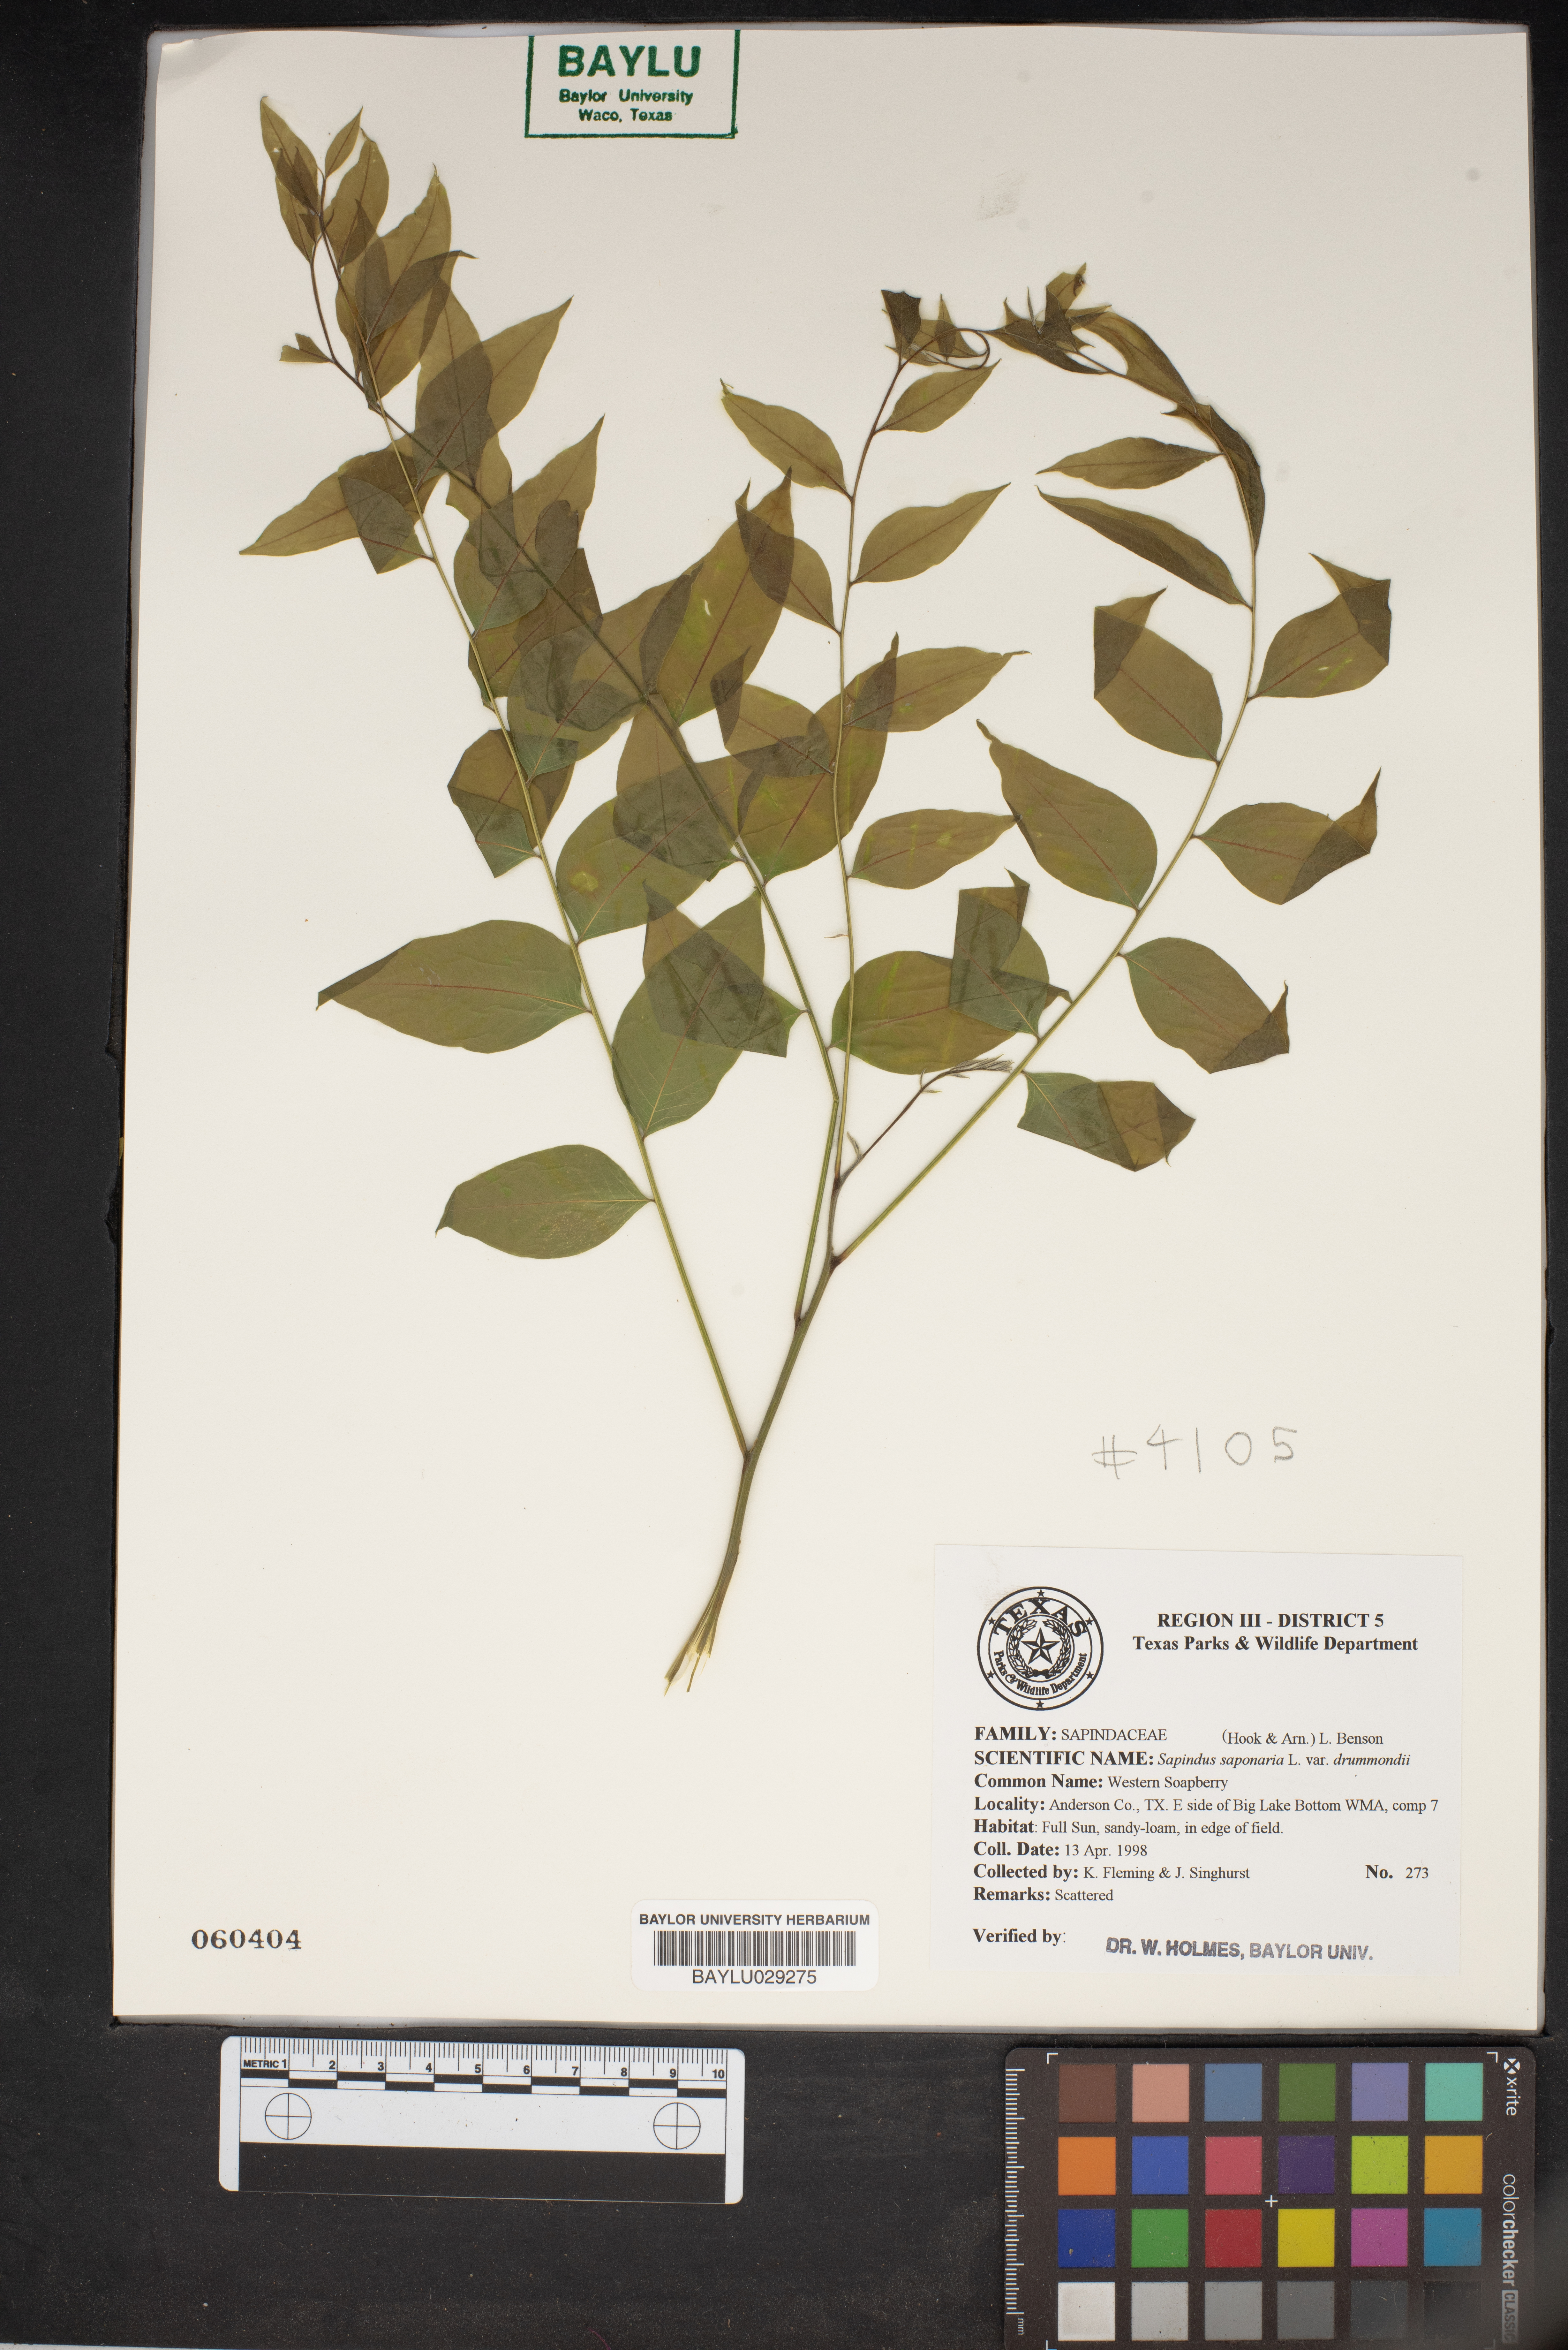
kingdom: Plantae
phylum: Tracheophyta
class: Magnoliopsida
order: Sapindales
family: Sapindaceae
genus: Sapindus
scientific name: Sapindus drummondii
